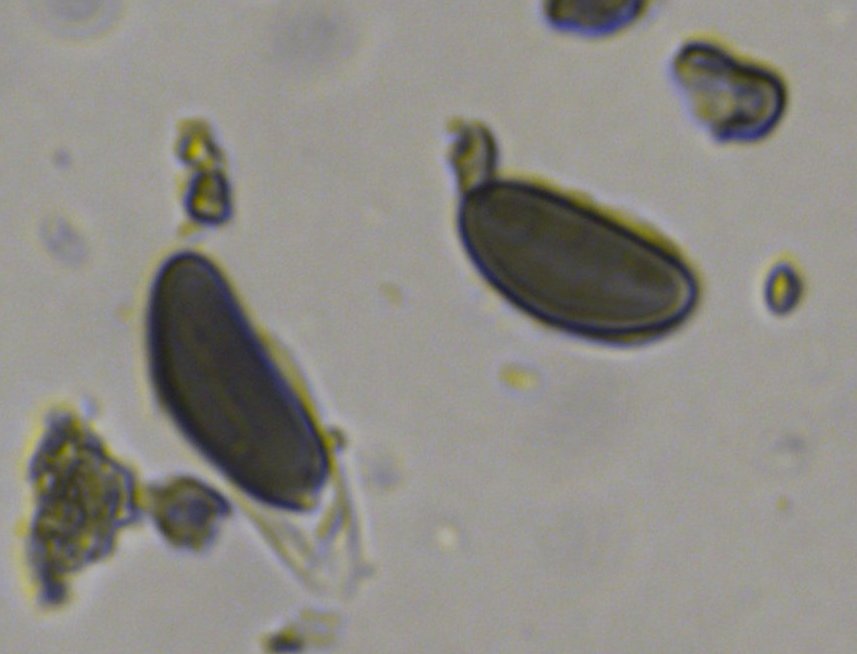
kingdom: Fungi
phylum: Ascomycota
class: Sordariomycetes
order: Xylariales
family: Hypoxylaceae
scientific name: Hypoxylaceae
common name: kulbærfamilien
